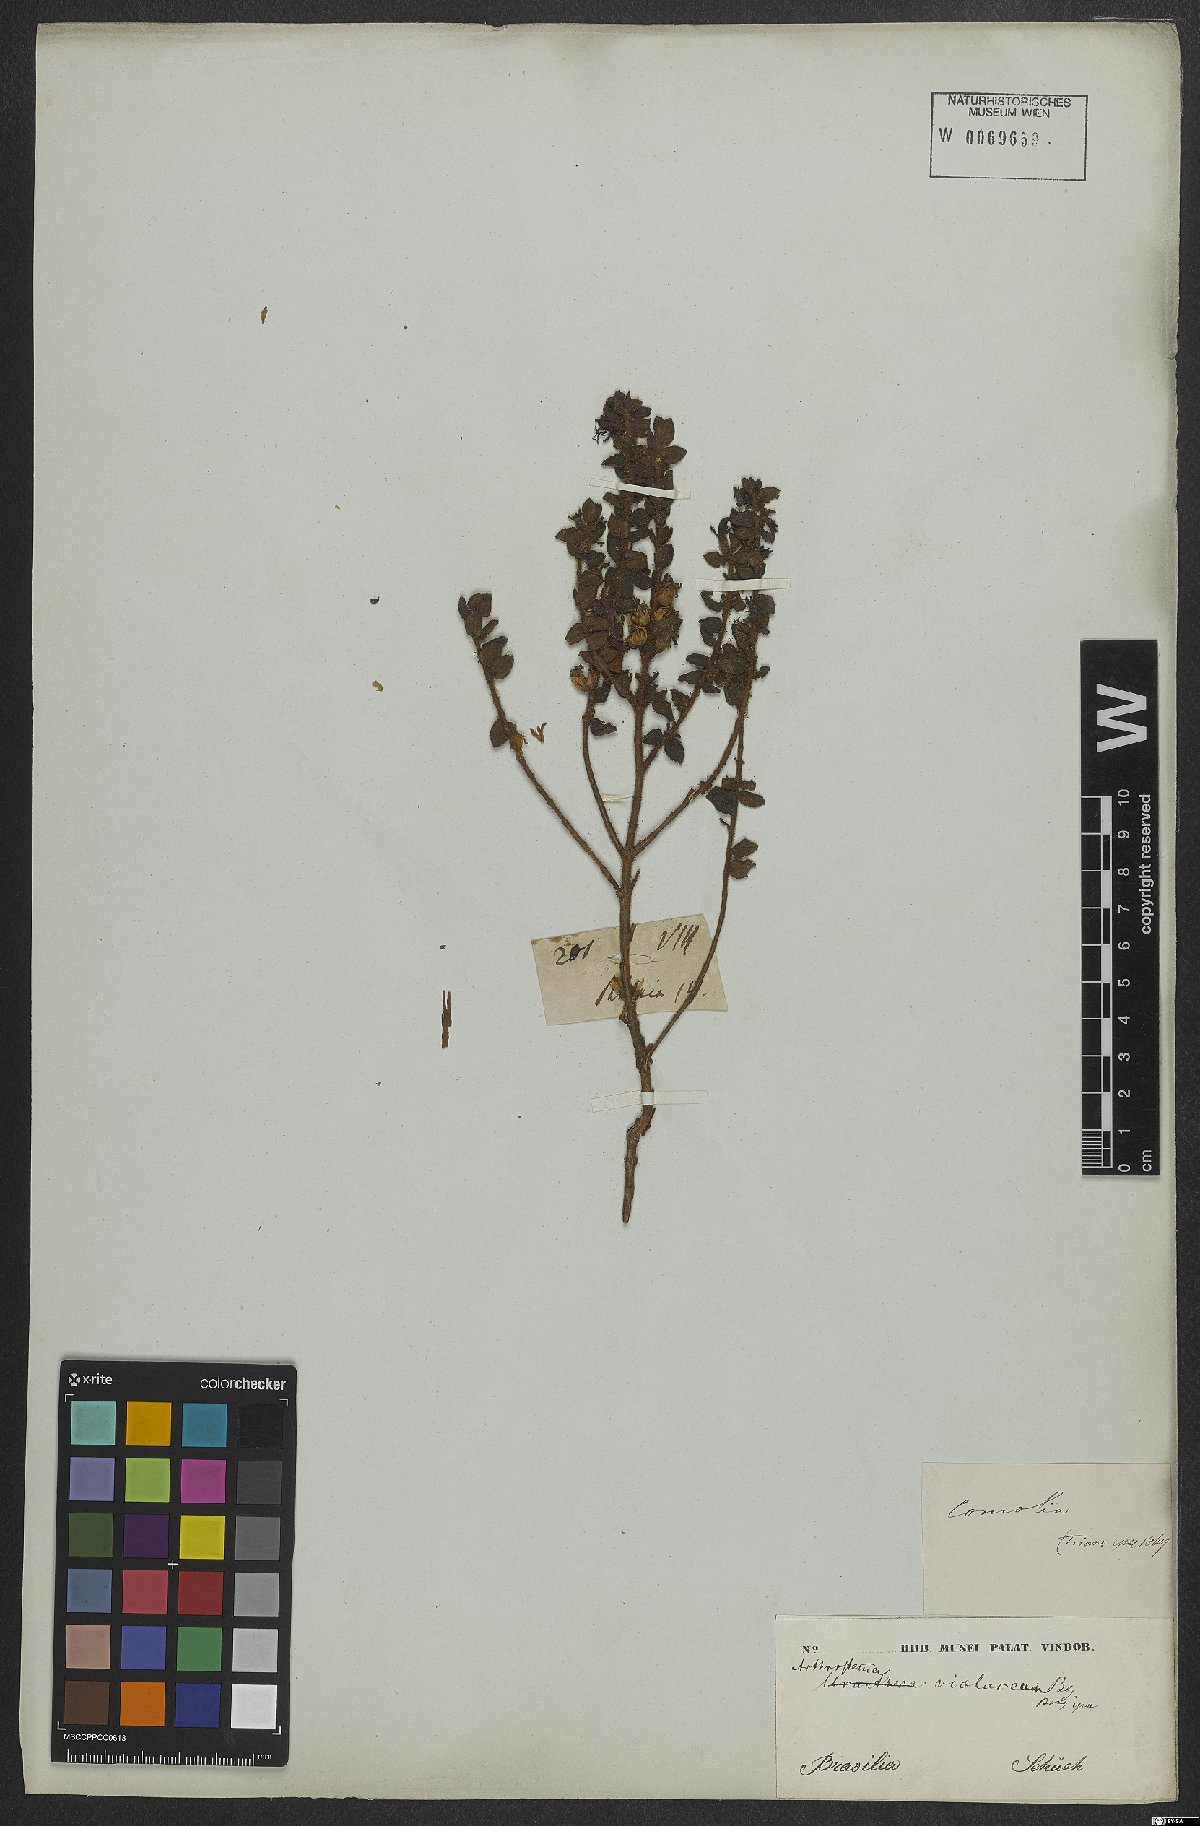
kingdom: Plantae
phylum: Tracheophyta
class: Magnoliopsida
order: Myrtales
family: Melastomataceae
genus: Miconia
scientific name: Miconia ceramicarpa
